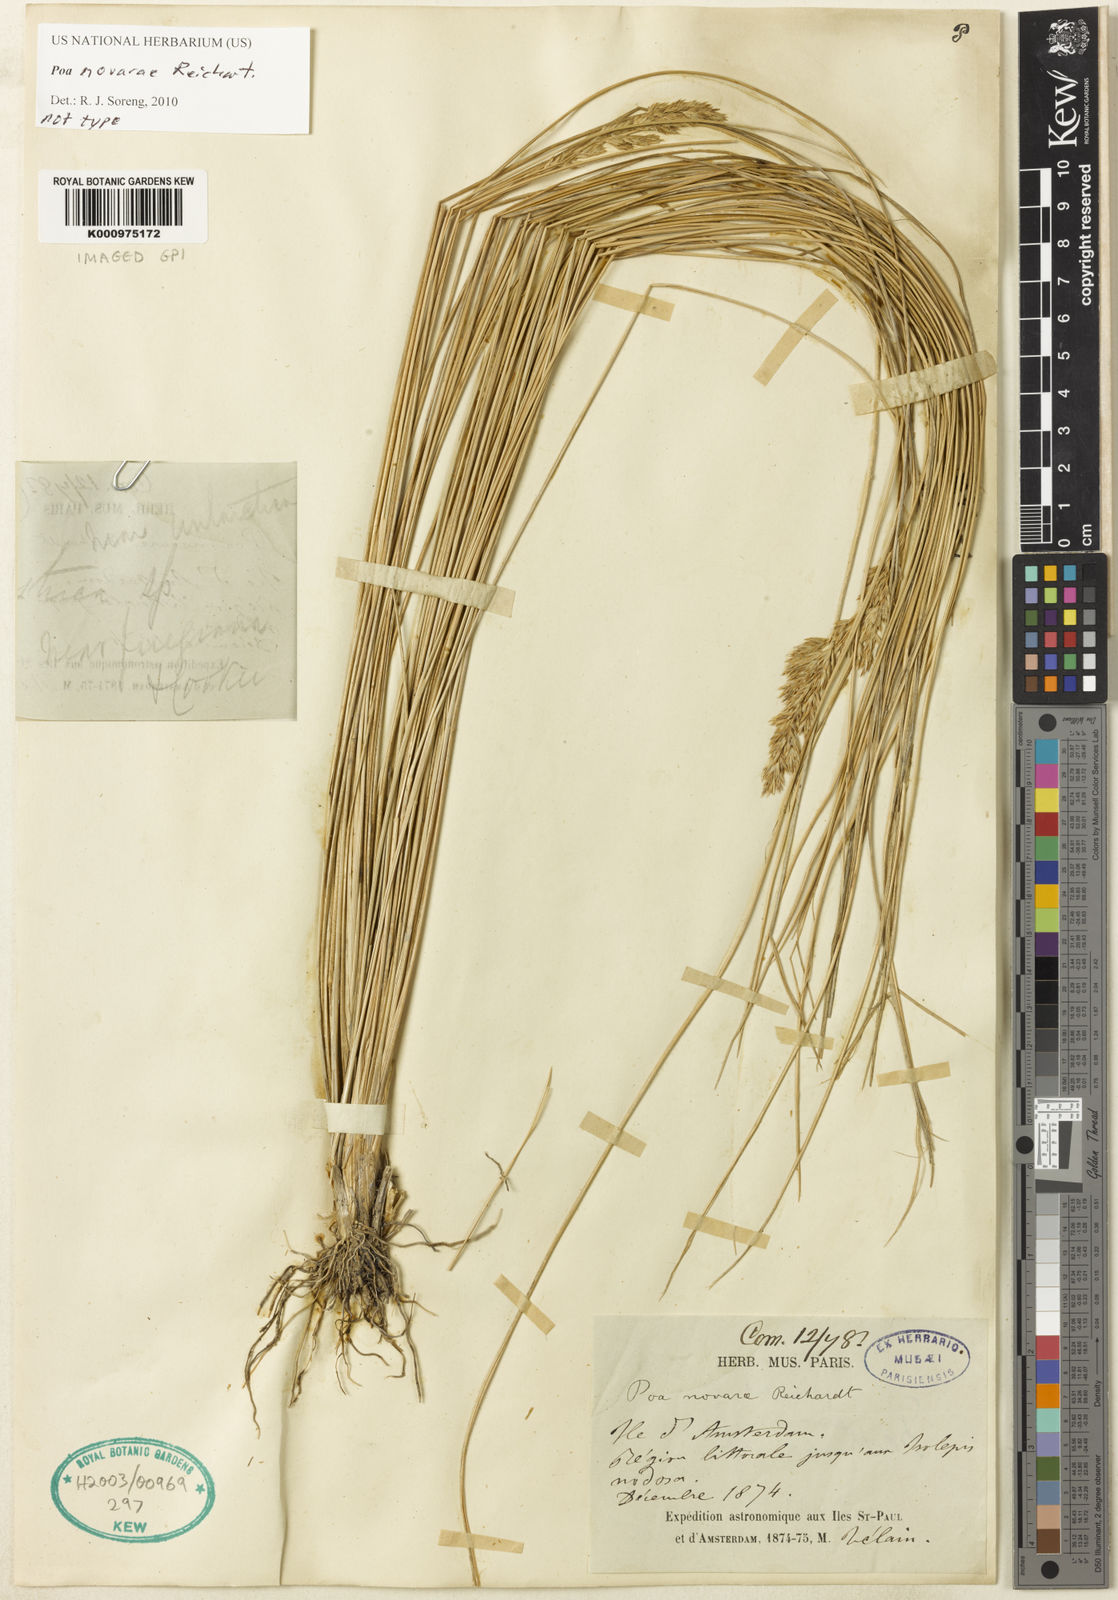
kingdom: Plantae
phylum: Tracheophyta
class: Liliopsida
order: Poales
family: Poaceae
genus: Poa
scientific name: Poa novarae
